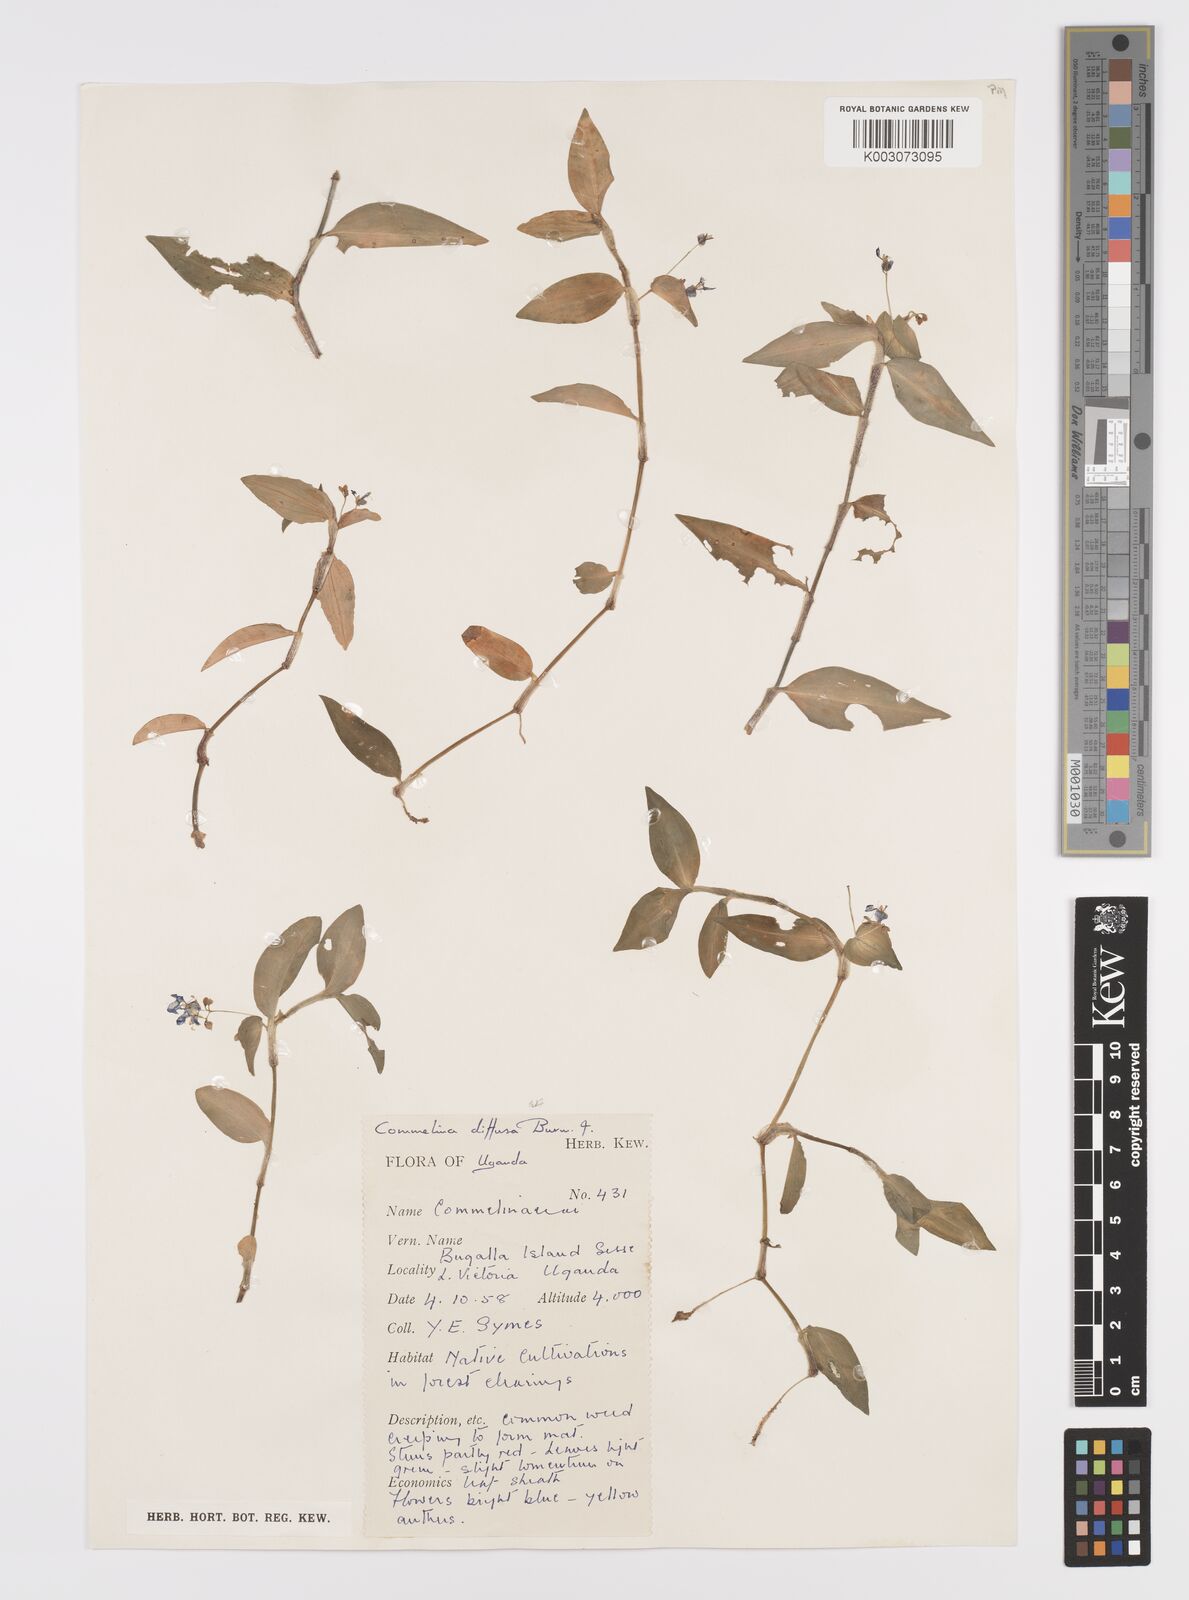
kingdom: Plantae
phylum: Tracheophyta
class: Liliopsida
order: Commelinales
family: Commelinaceae
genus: Commelina
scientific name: Commelina diffusa
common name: Climbing dayflower
